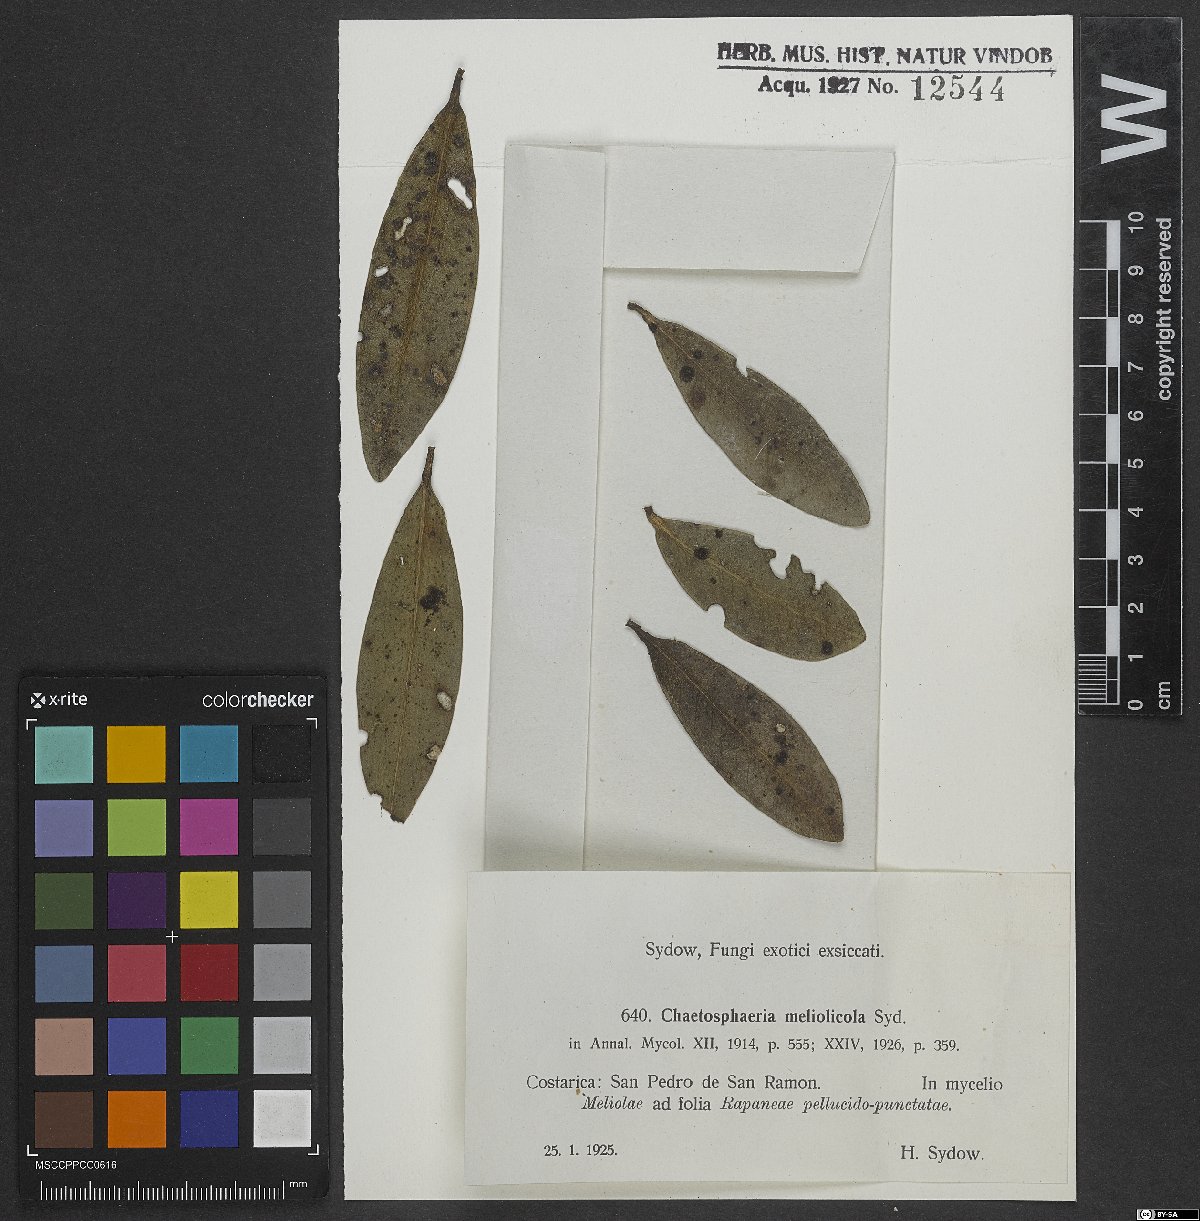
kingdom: Fungi
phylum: Ascomycota
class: Sordariomycetes
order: Chaetosphaeriales
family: Chaetosphaeriaceae
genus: Chaetosphaeria
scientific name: Chaetosphaeria meliolicola
